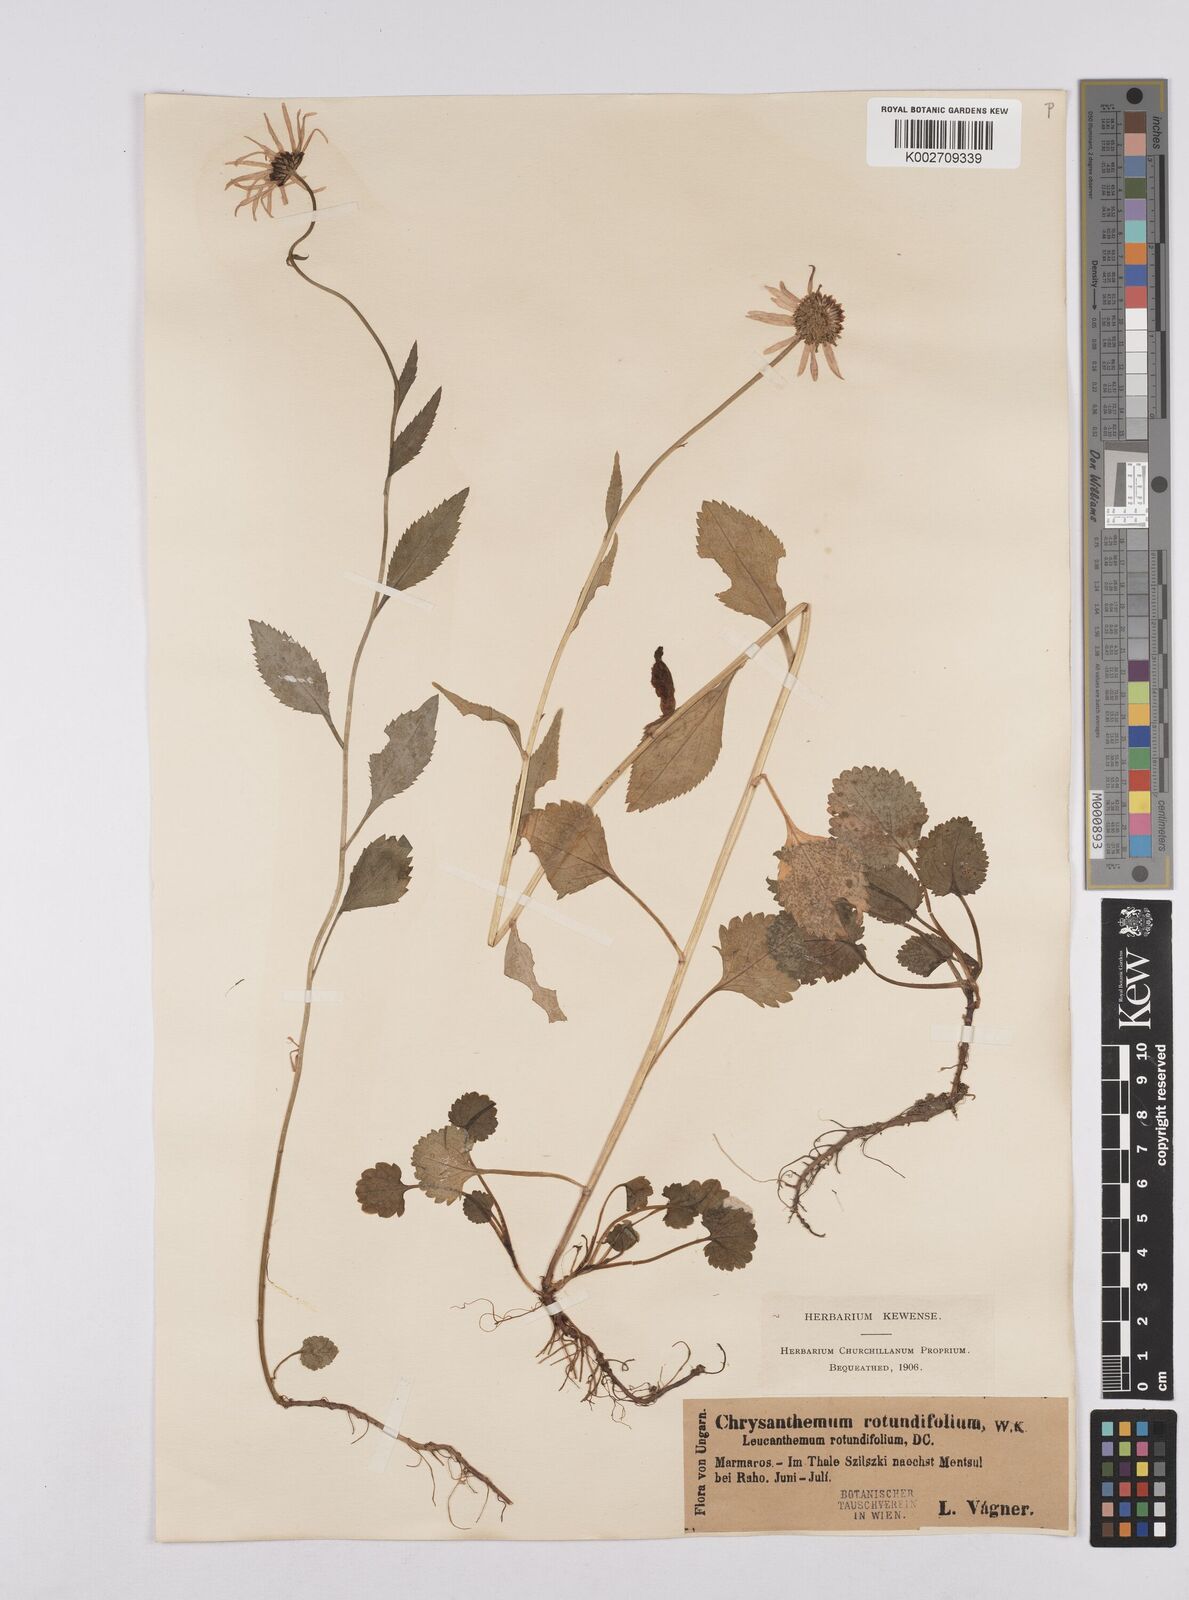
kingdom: Plantae
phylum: Tracheophyta
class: Magnoliopsida
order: Asterales
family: Asteraceae
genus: Leucanthemum
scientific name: Leucanthemum rotundifolium
